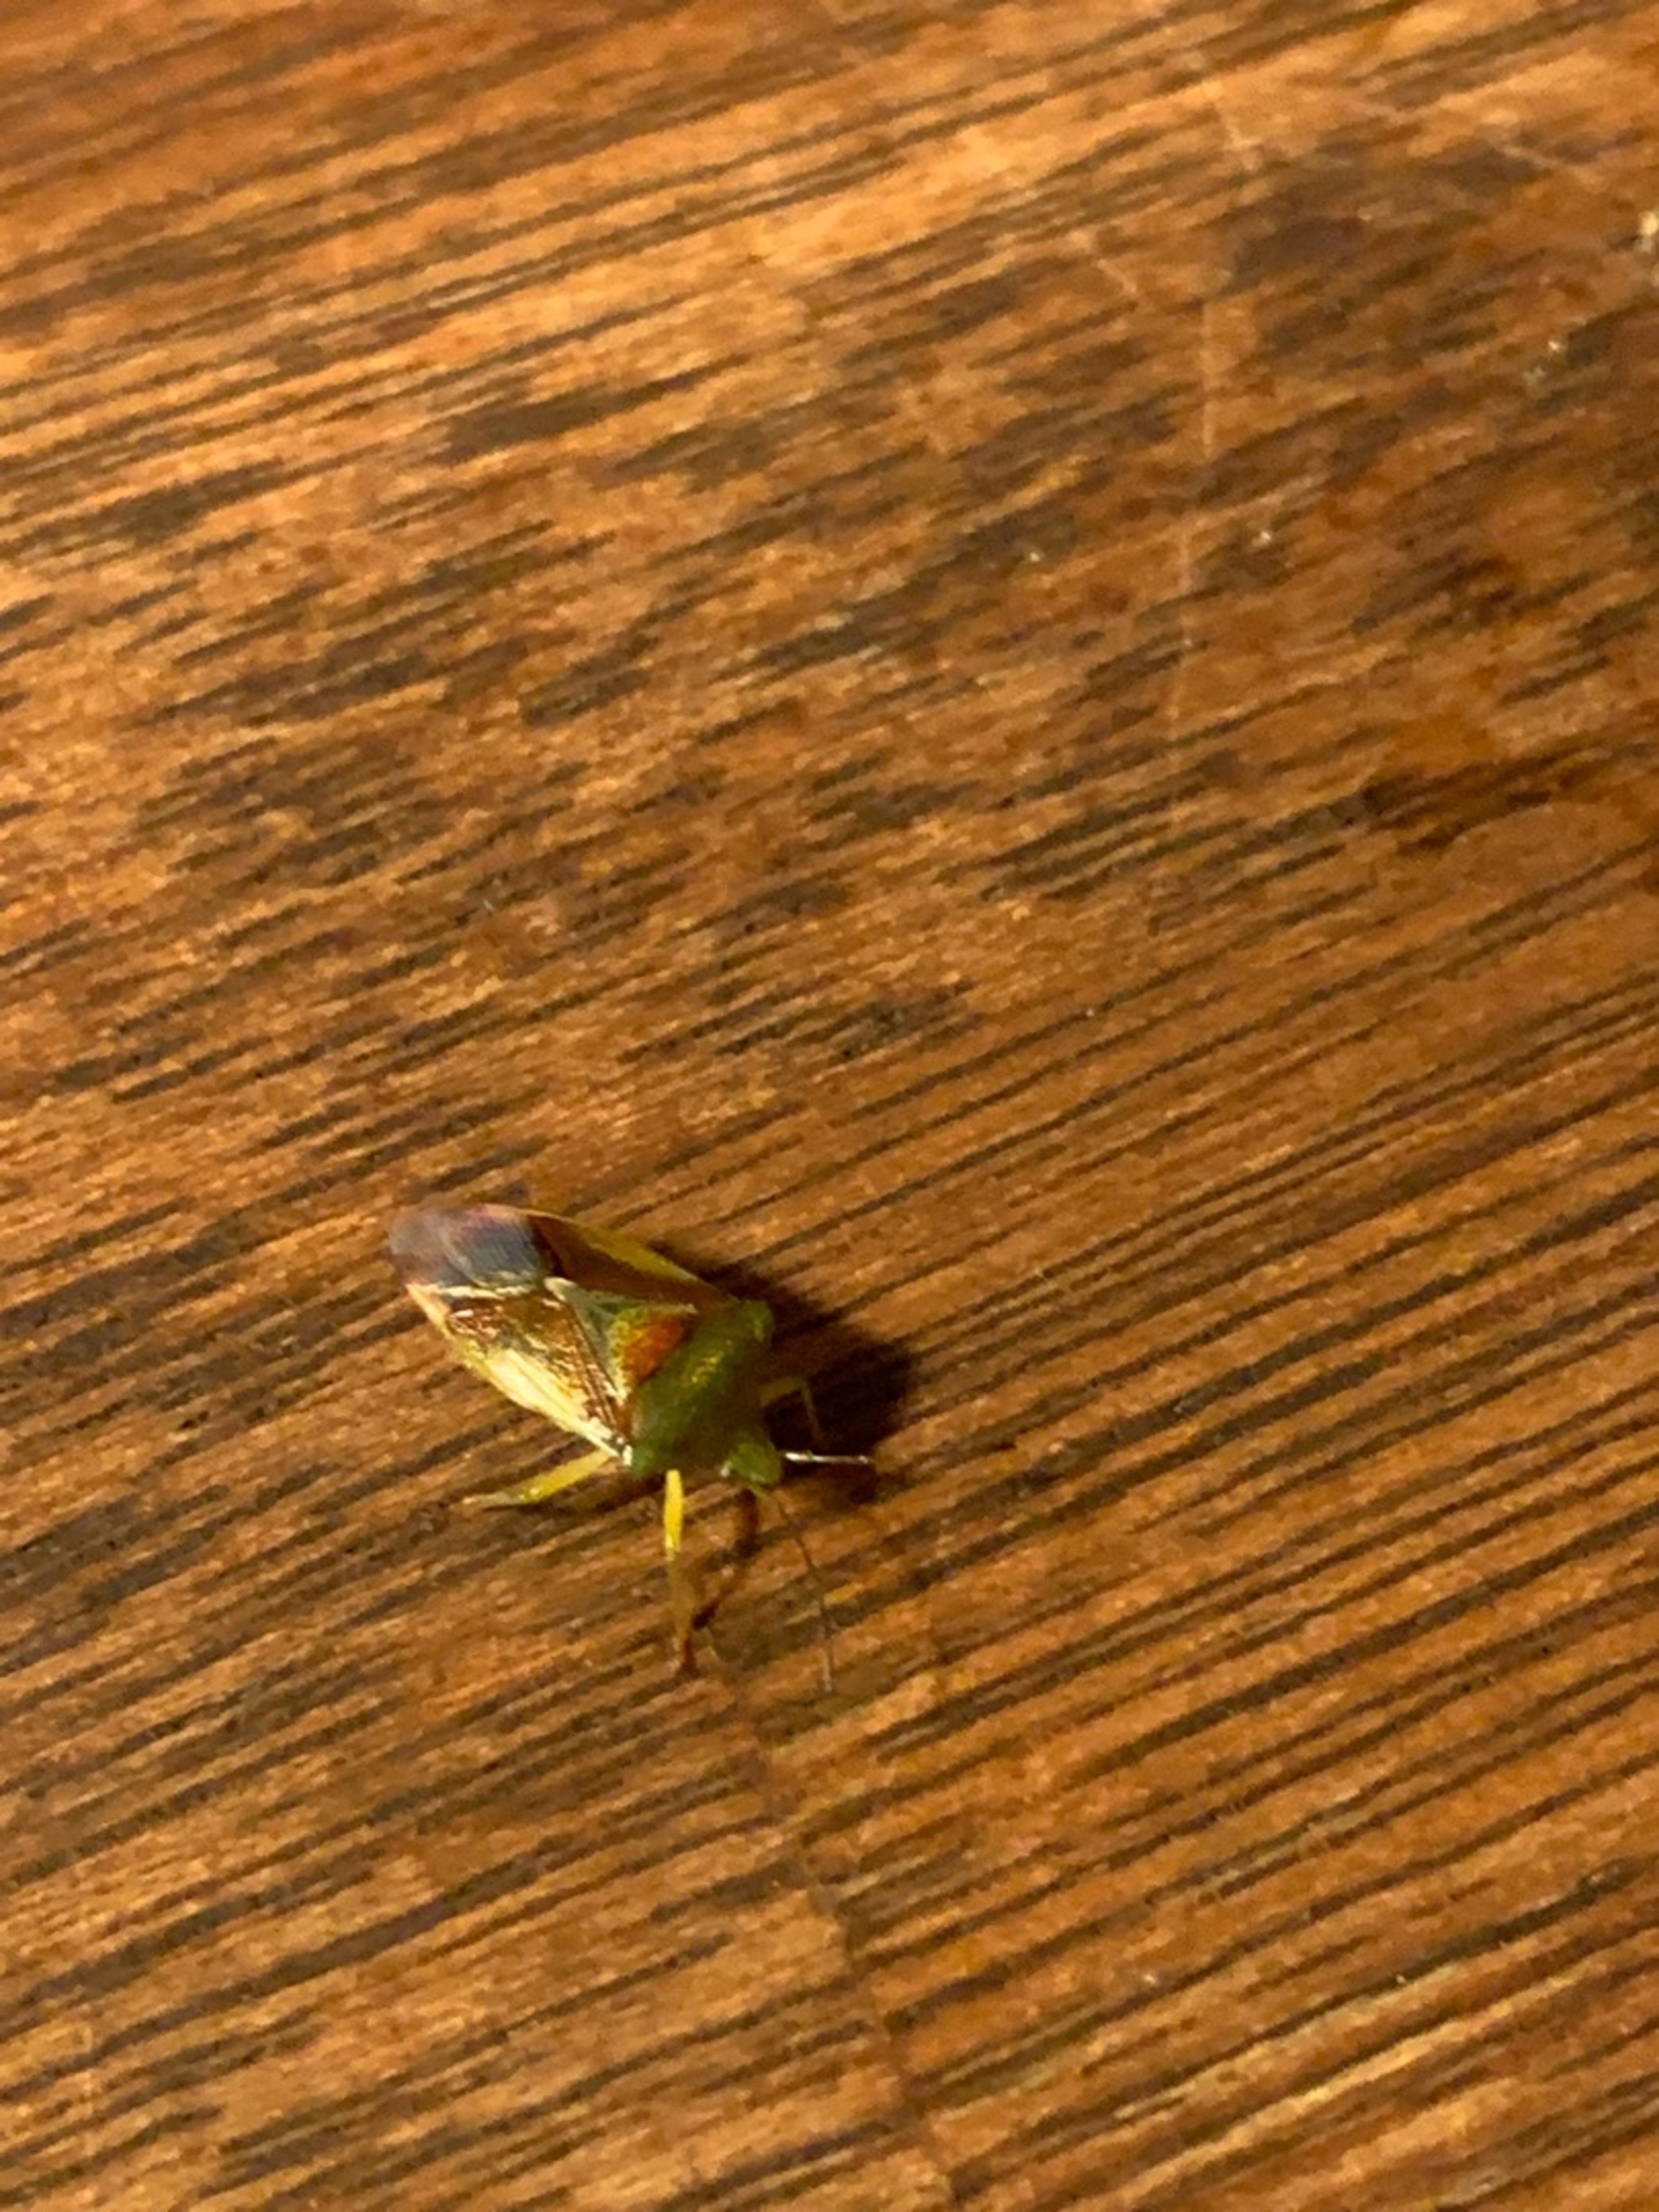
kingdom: Animalia
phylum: Arthropoda
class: Insecta
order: Hemiptera
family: Acanthosomatidae
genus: Elasmostethus
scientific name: Elasmostethus interstinctus
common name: Almindelig løvtæge
